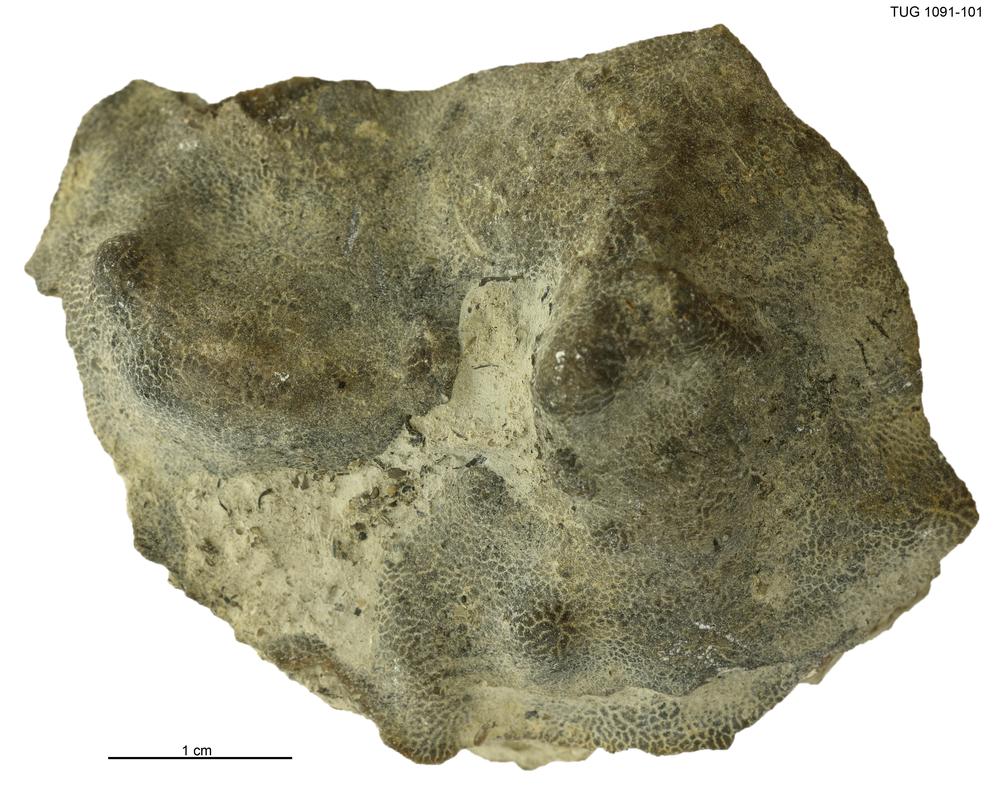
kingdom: Animalia
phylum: Porifera
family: Pseudolabechiidae
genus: Pseudolabechia
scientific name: Pseudolabechia
